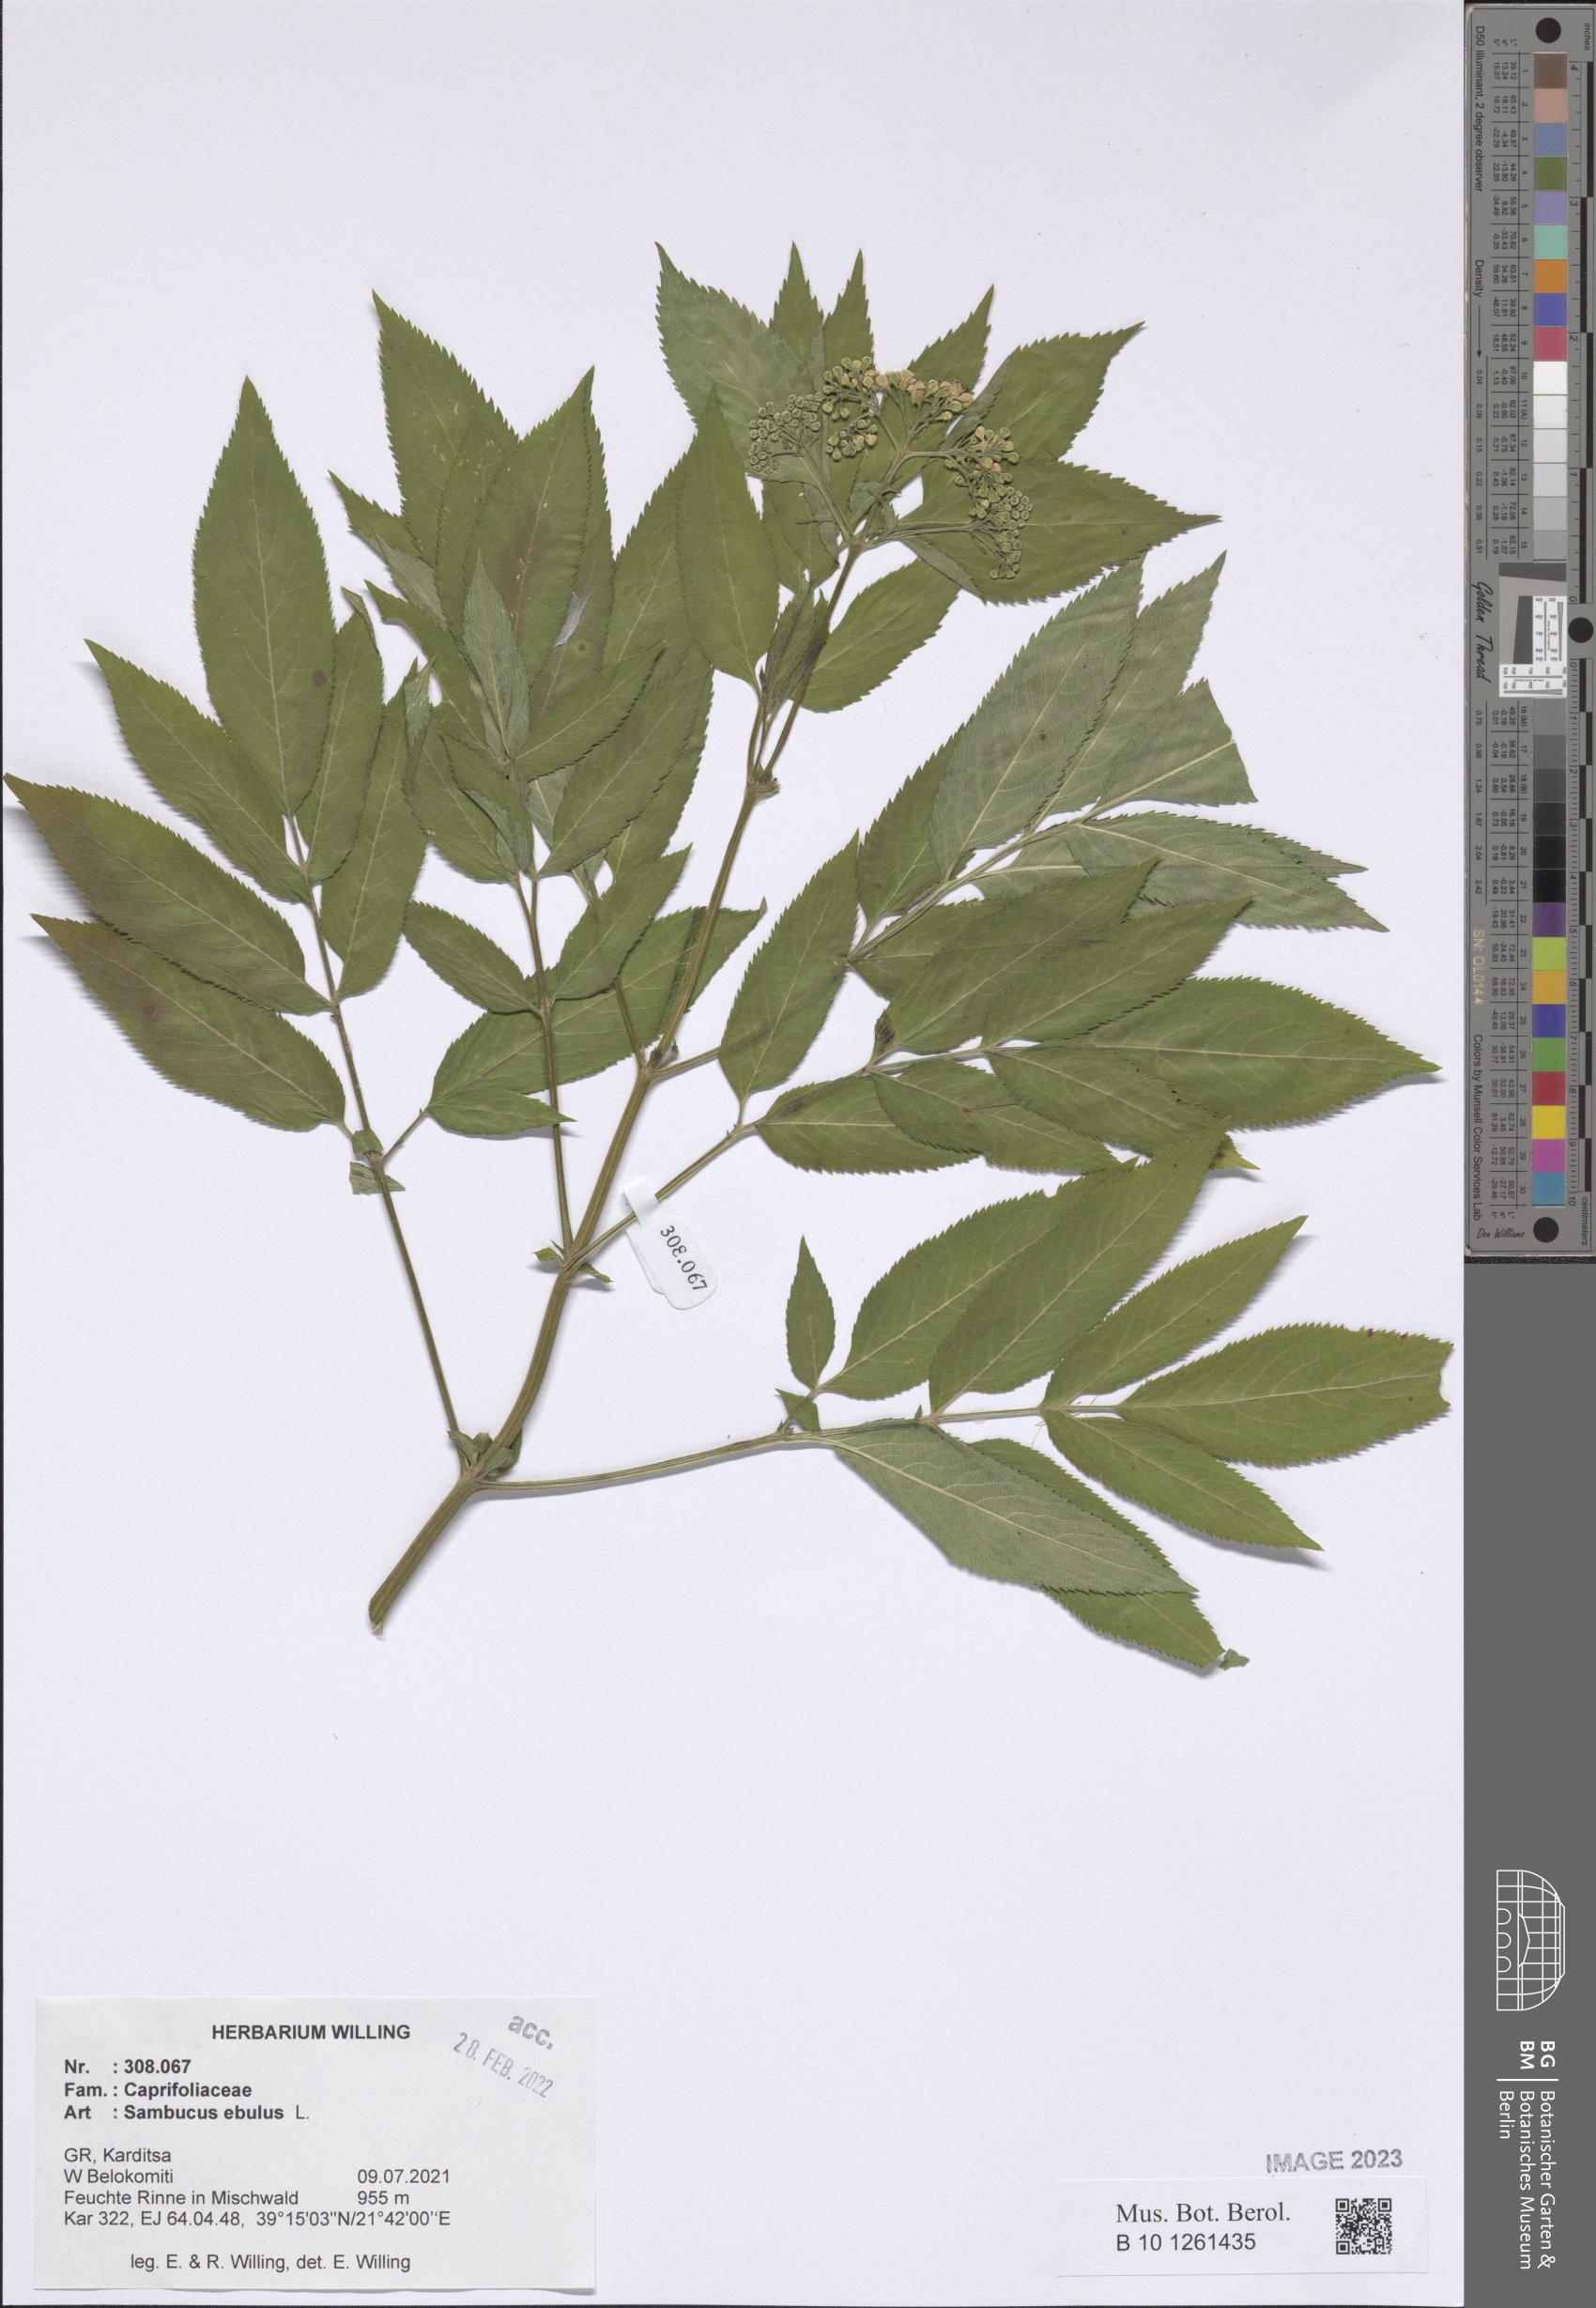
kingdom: Plantae
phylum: Tracheophyta
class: Magnoliopsida
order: Dipsacales
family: Viburnaceae
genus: Sambucus
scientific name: Sambucus ebulus
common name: Dwarf elder
